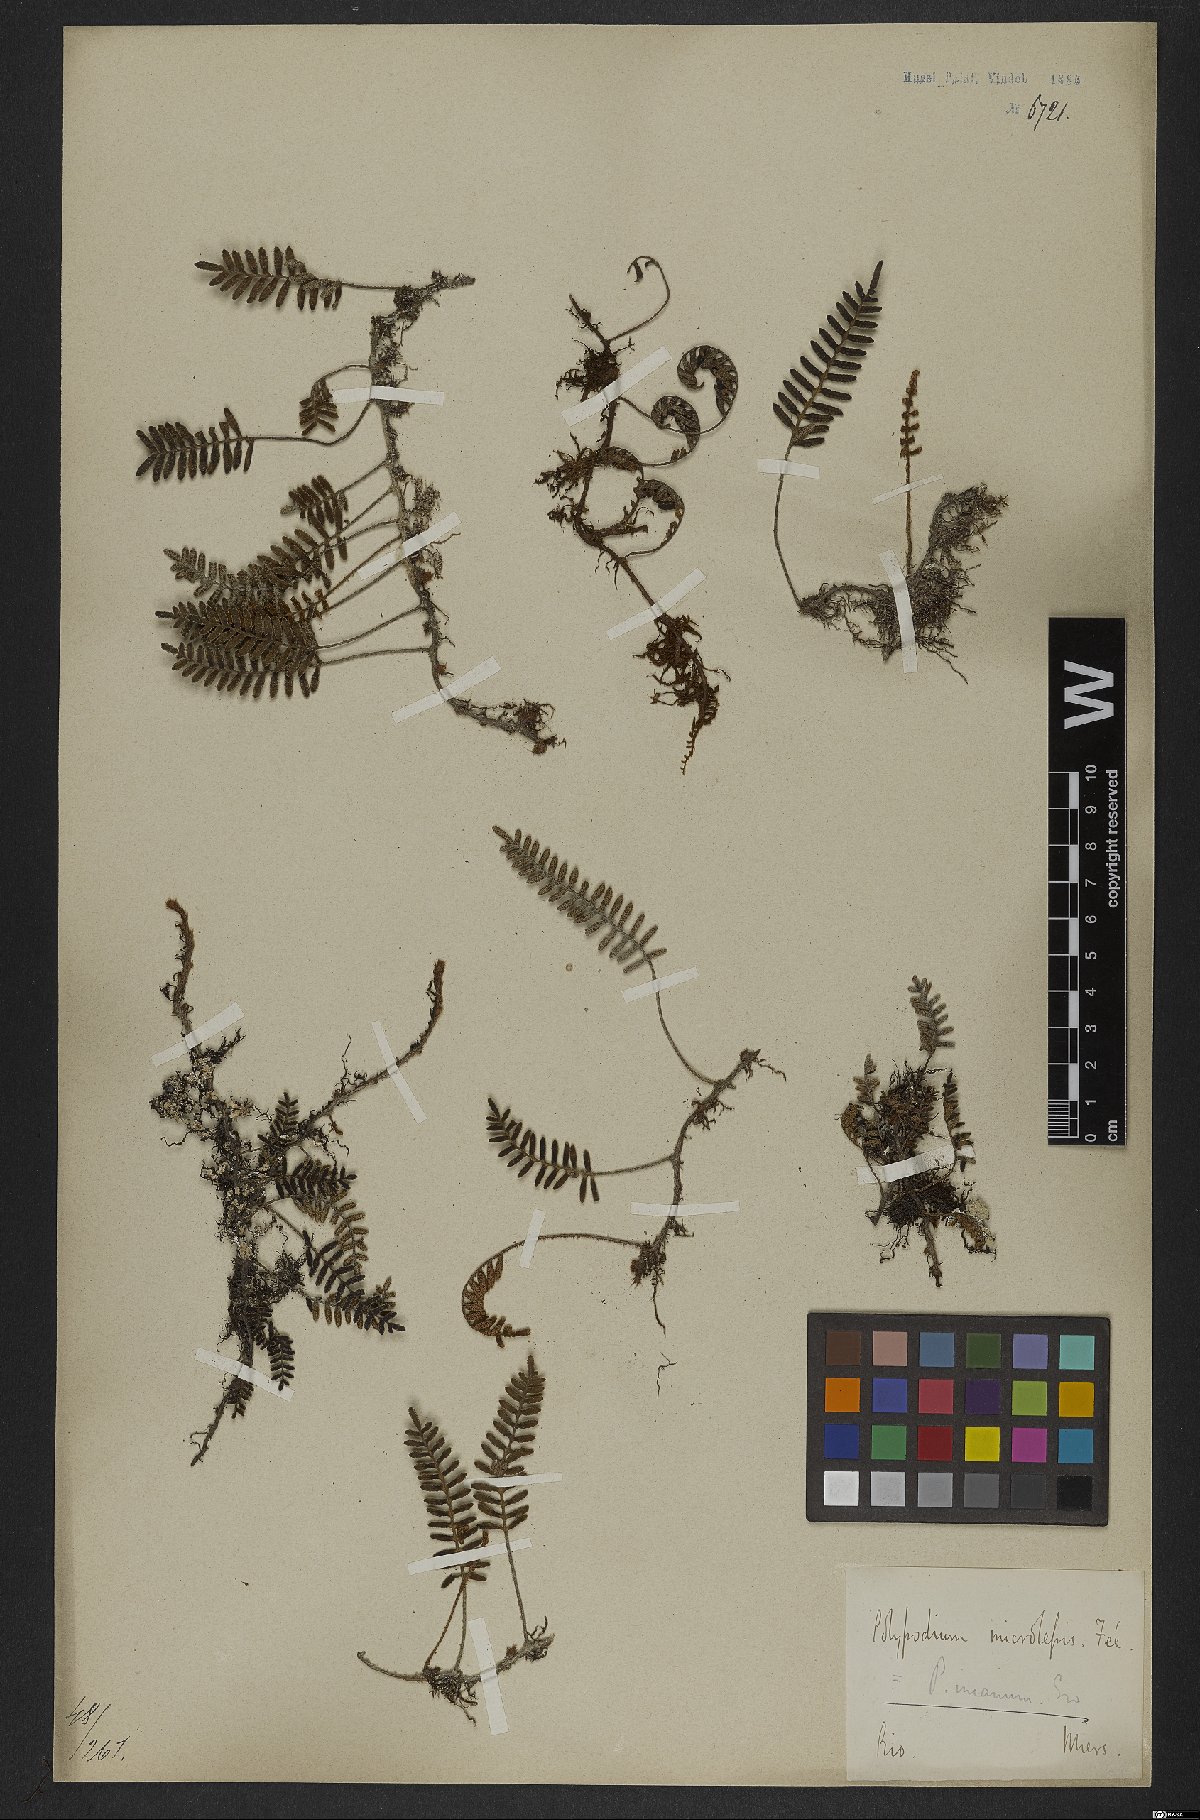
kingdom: Plantae
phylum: Tracheophyta
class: Polypodiopsida
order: Polypodiales
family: Polypodiaceae
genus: Pleopeltis
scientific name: Pleopeltis polypodioides
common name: Resurrection fern
